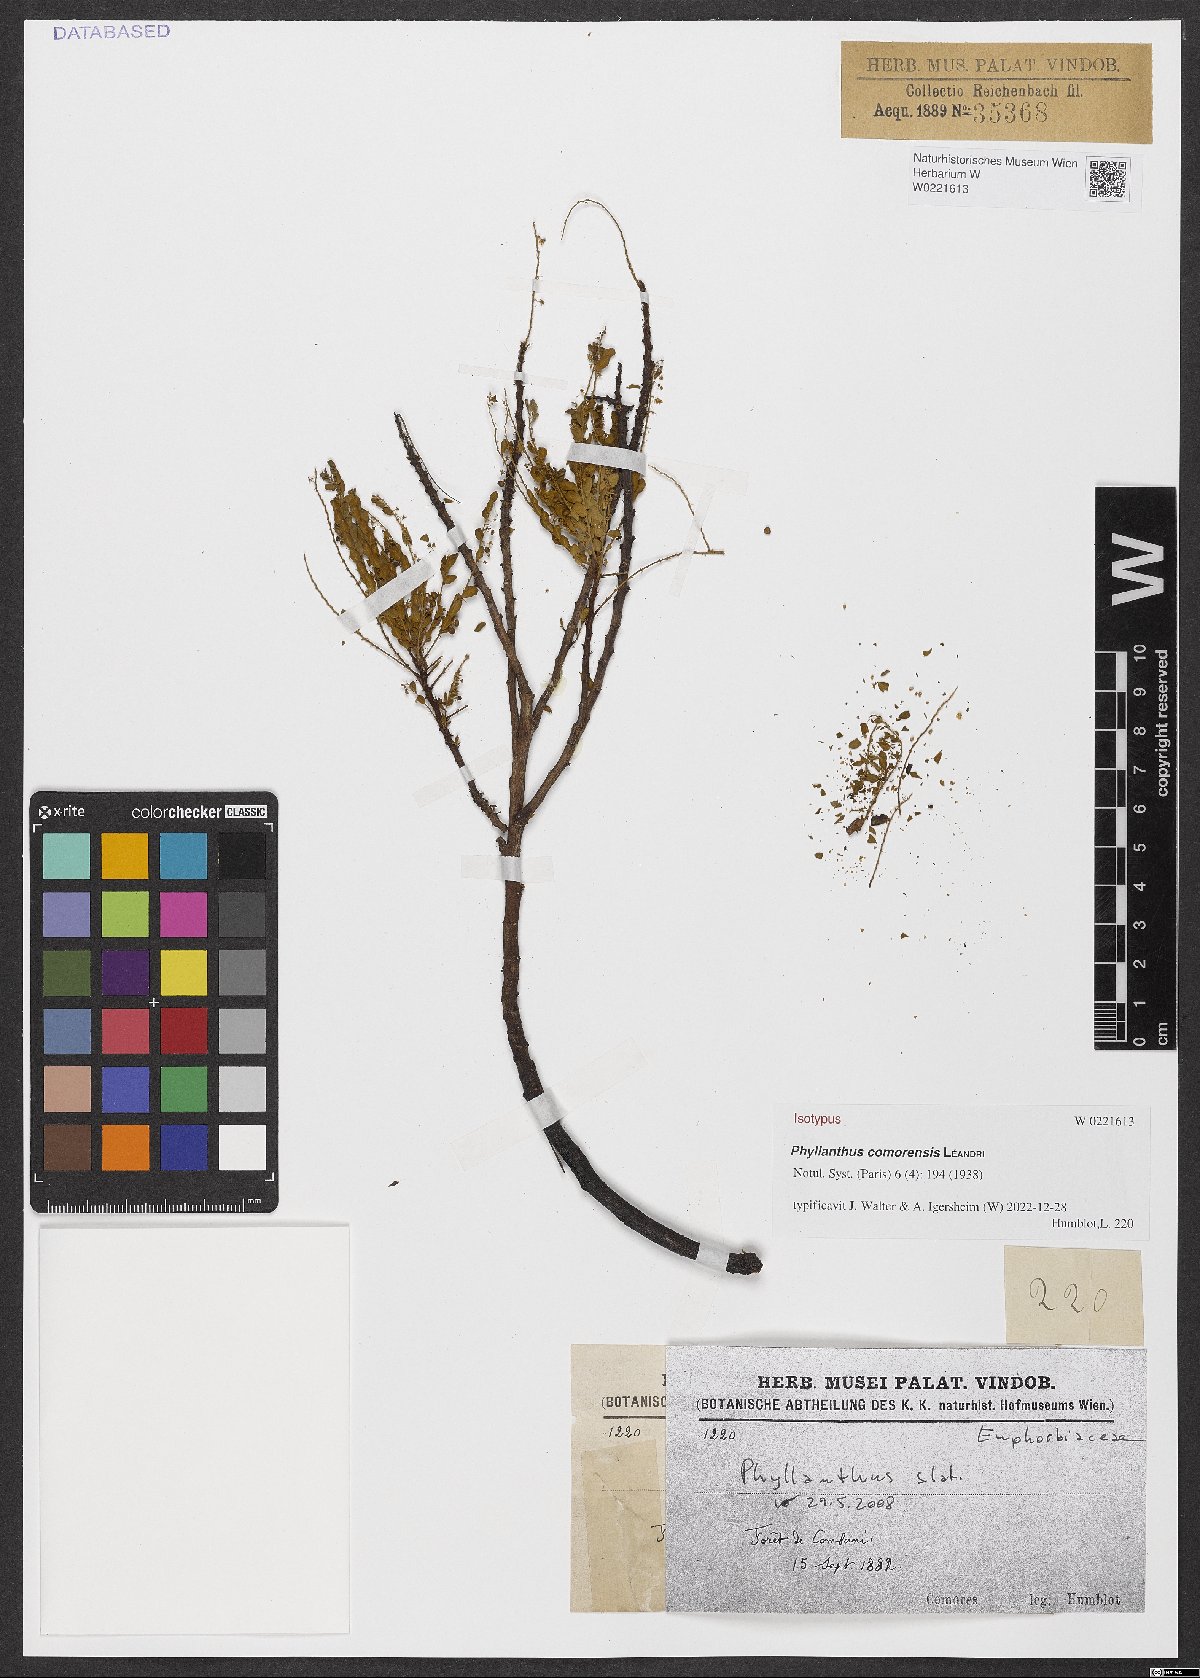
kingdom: Plantae
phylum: Tracheophyta
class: Magnoliopsida
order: Malpighiales
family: Phyllanthaceae
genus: Phyllanthus
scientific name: Phyllanthus comorensis
